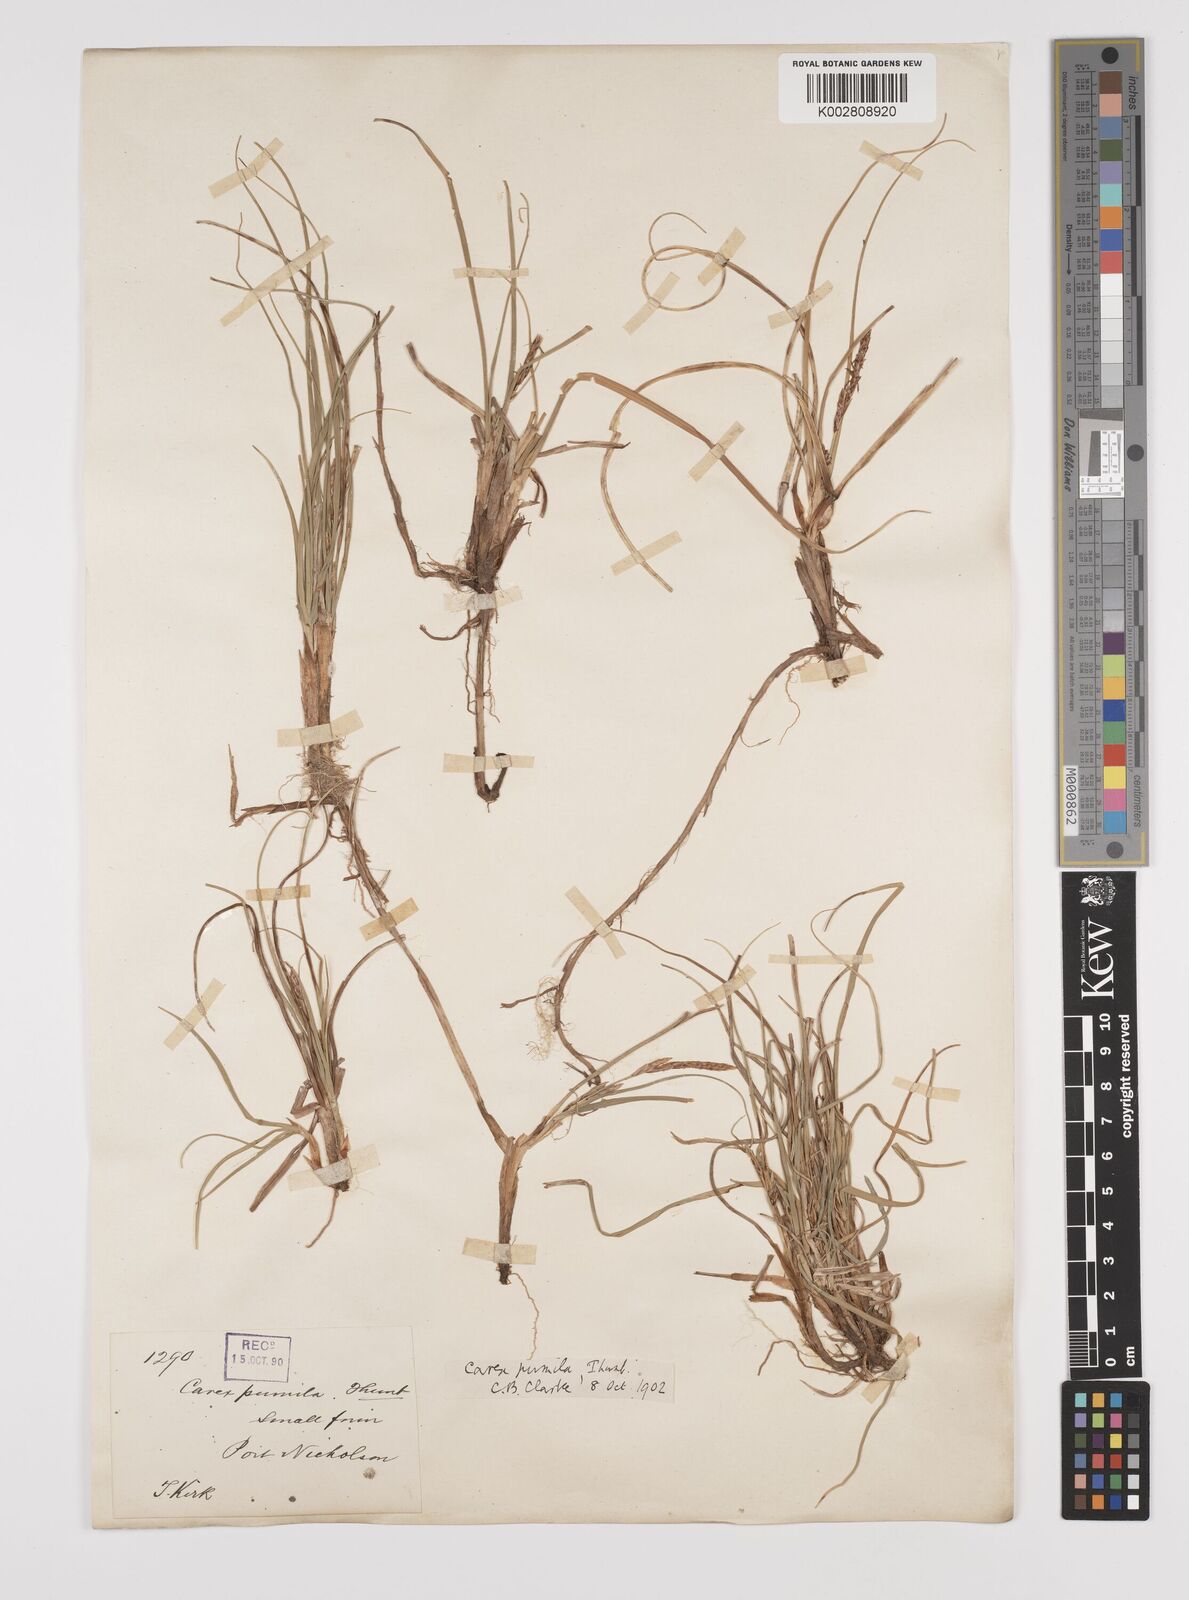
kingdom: Plantae
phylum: Tracheophyta
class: Liliopsida
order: Poales
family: Cyperaceae
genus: Carex
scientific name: Carex pumila
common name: Dwarf sedge
